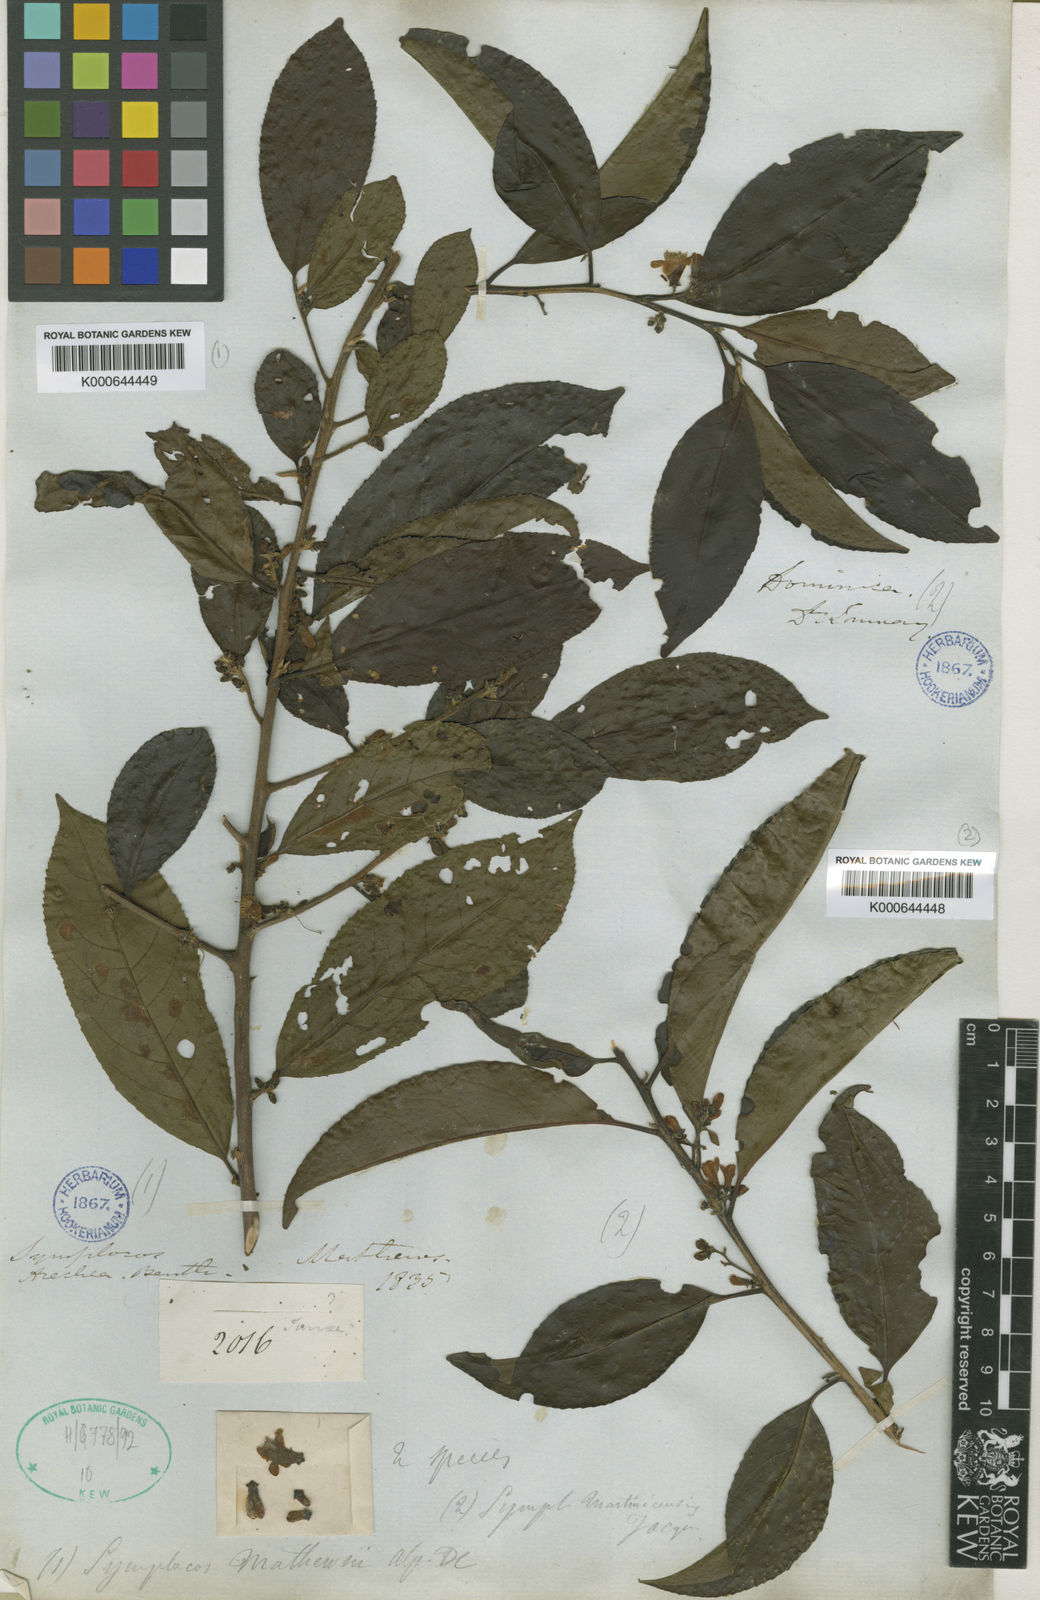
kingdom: Plantae
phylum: Tracheophyta
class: Magnoliopsida
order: Ericales
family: Symplocaceae
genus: Symplocos
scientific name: Symplocos
